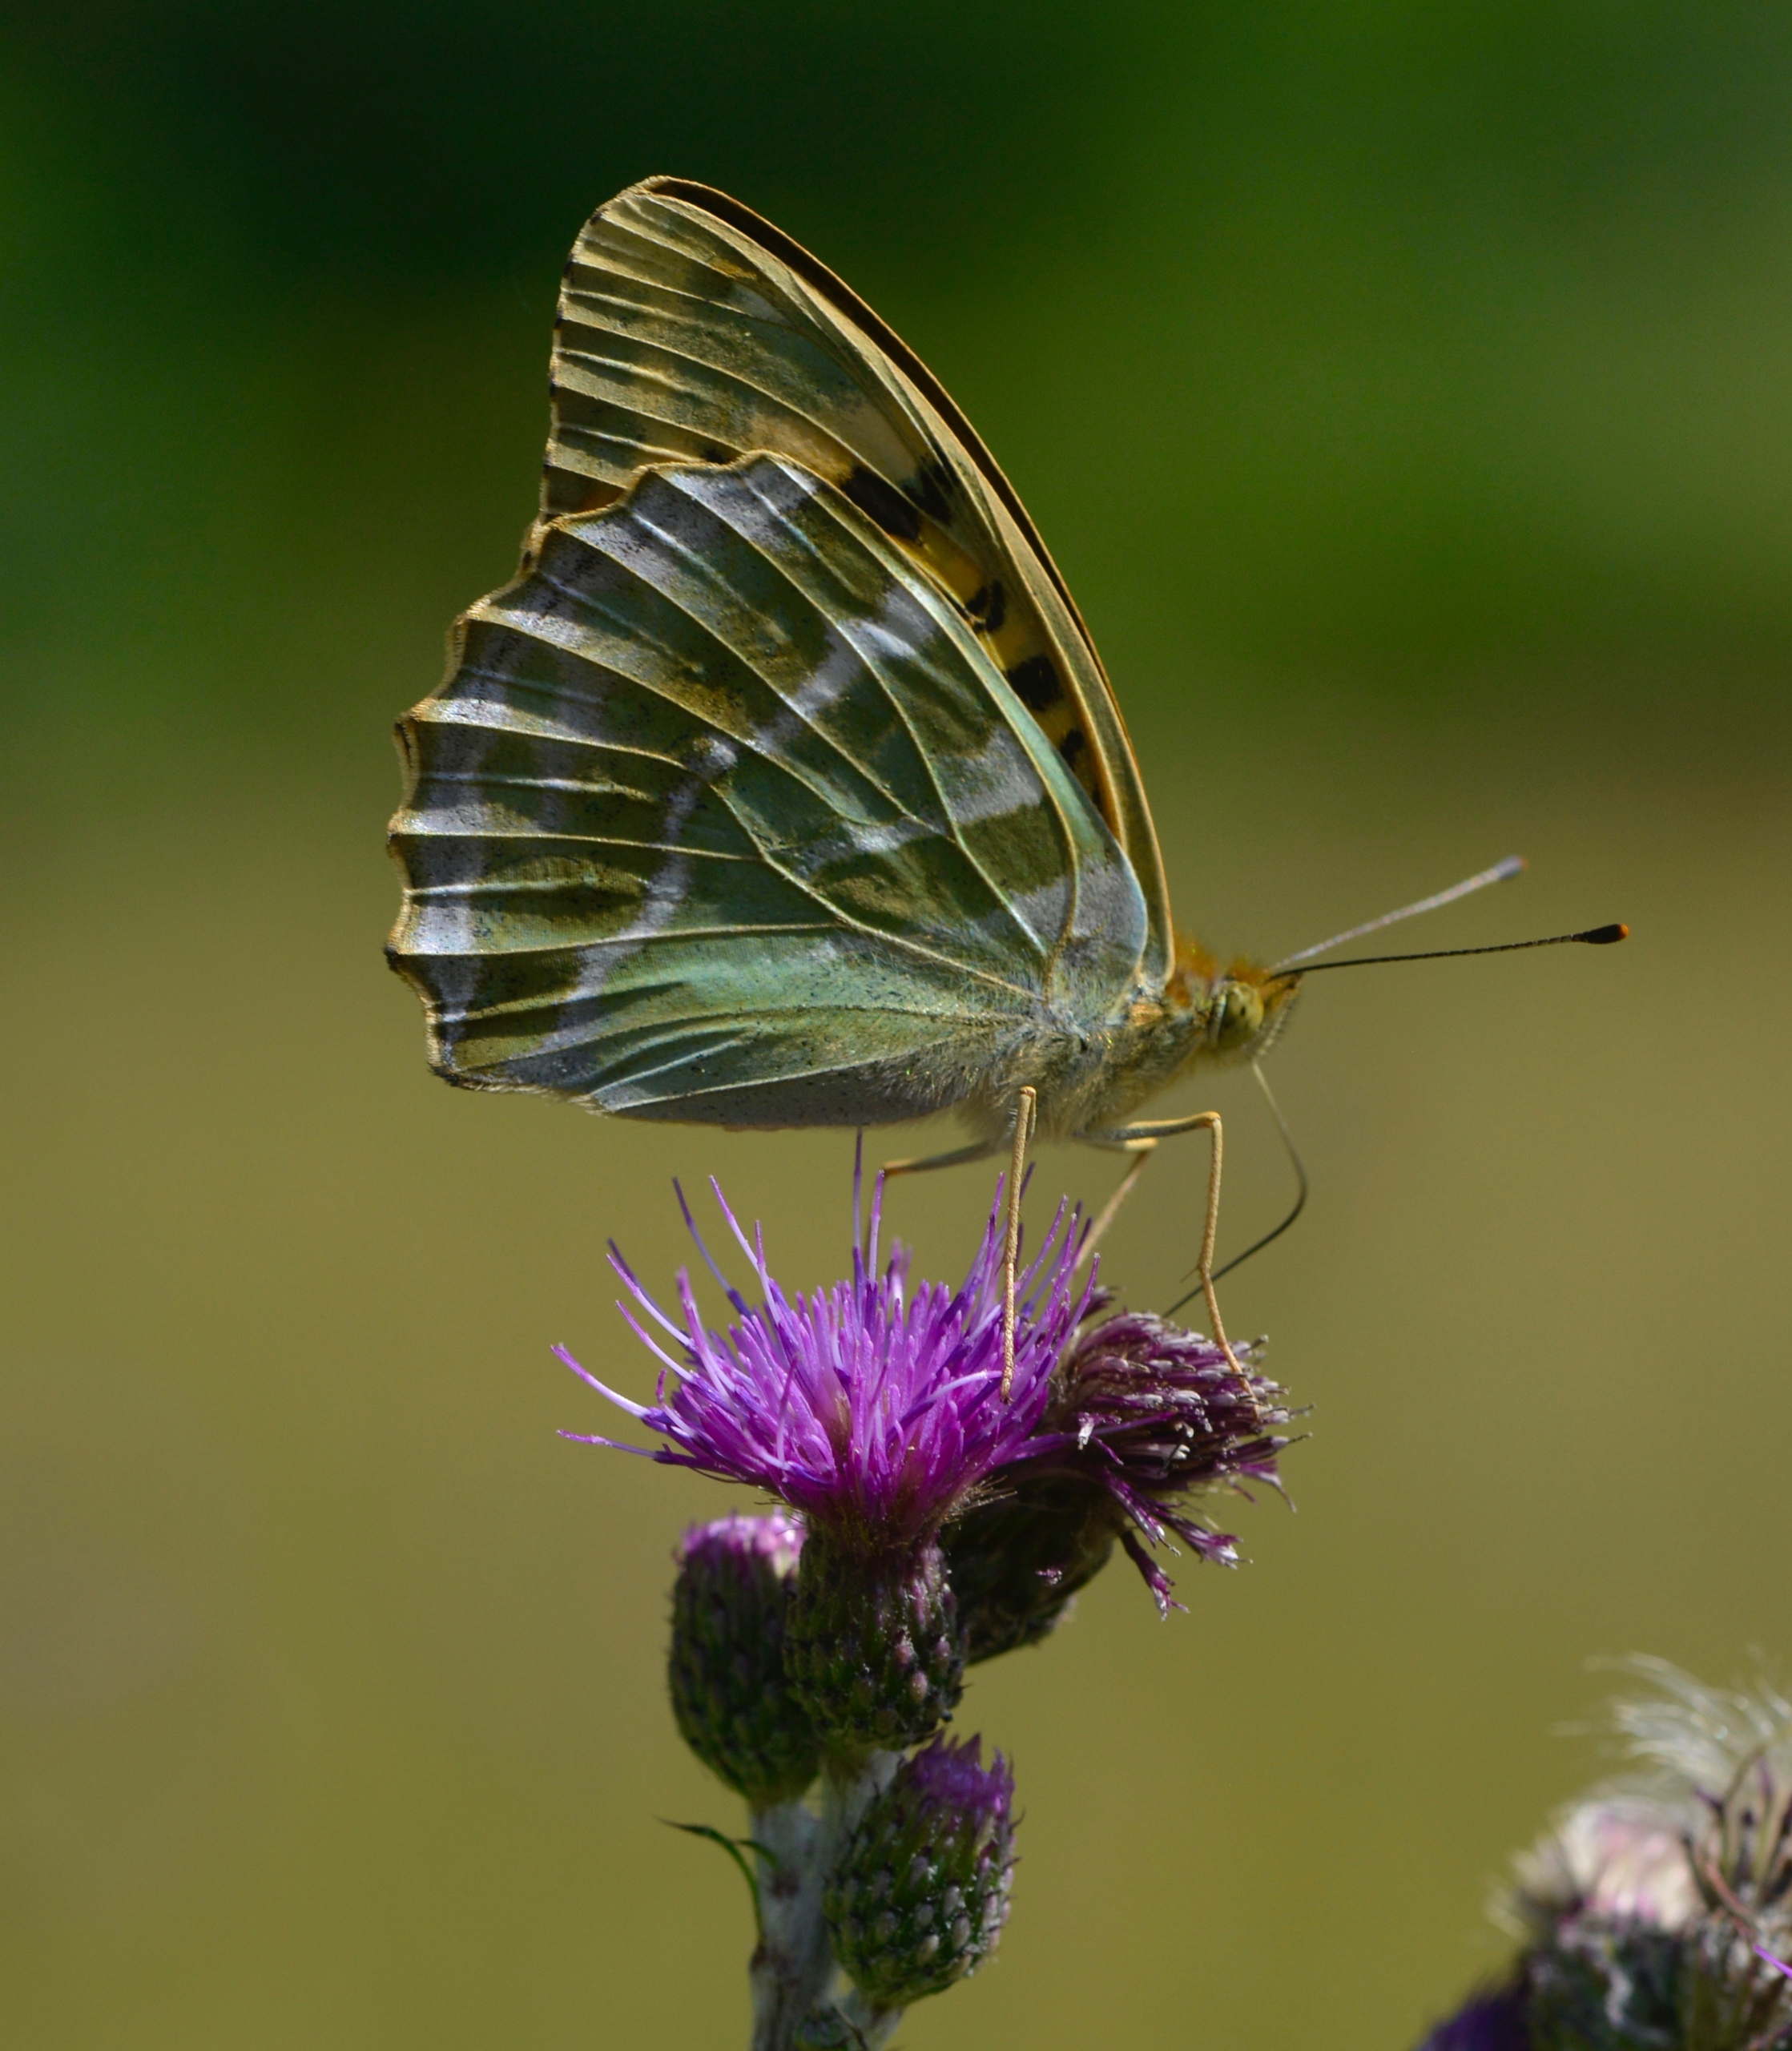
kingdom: Animalia
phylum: Arthropoda
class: Insecta
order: Lepidoptera
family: Nymphalidae
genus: Argynnis
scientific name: Argynnis paphia
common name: Kejserkåbe
